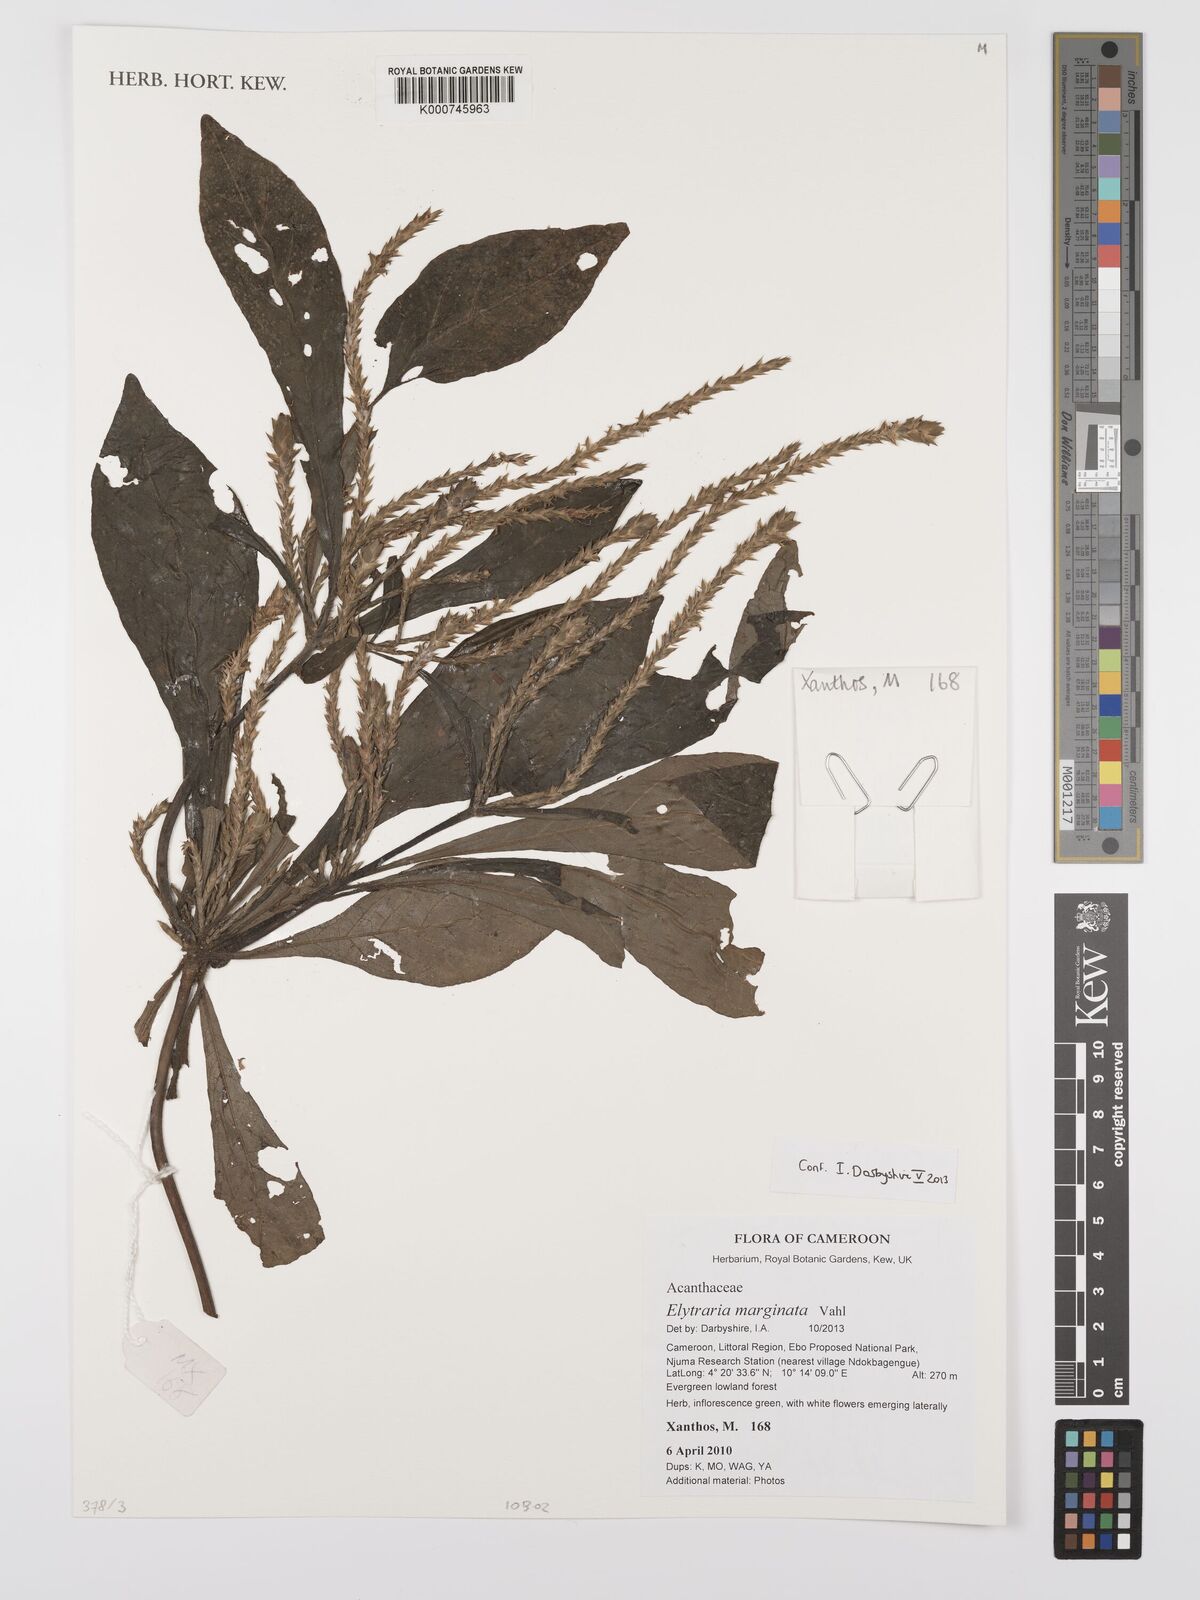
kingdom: Plantae
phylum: Tracheophyta
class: Magnoliopsida
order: Lamiales
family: Acanthaceae
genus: Elytraria
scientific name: Elytraria marginata
